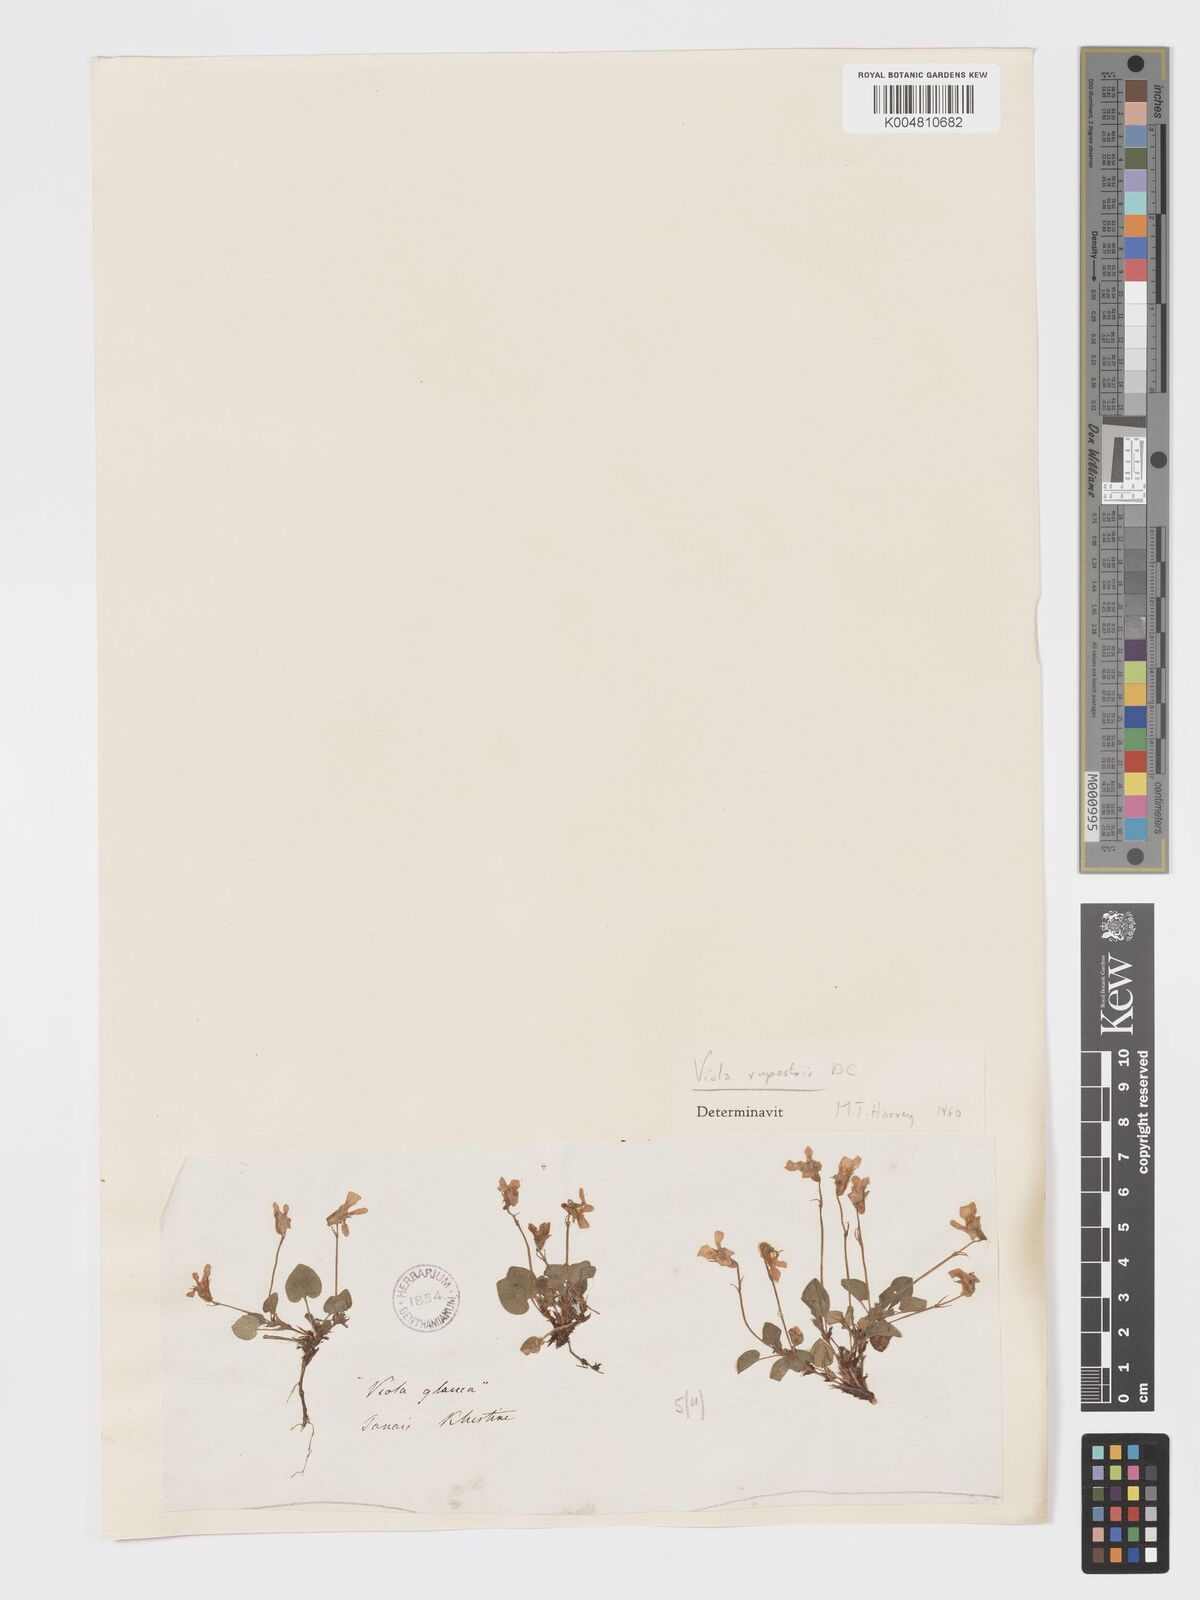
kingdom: Plantae
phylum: Tracheophyta
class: Magnoliopsida
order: Malpighiales
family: Violaceae
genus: Viola
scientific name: Viola rupestris
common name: Teesdale violet
